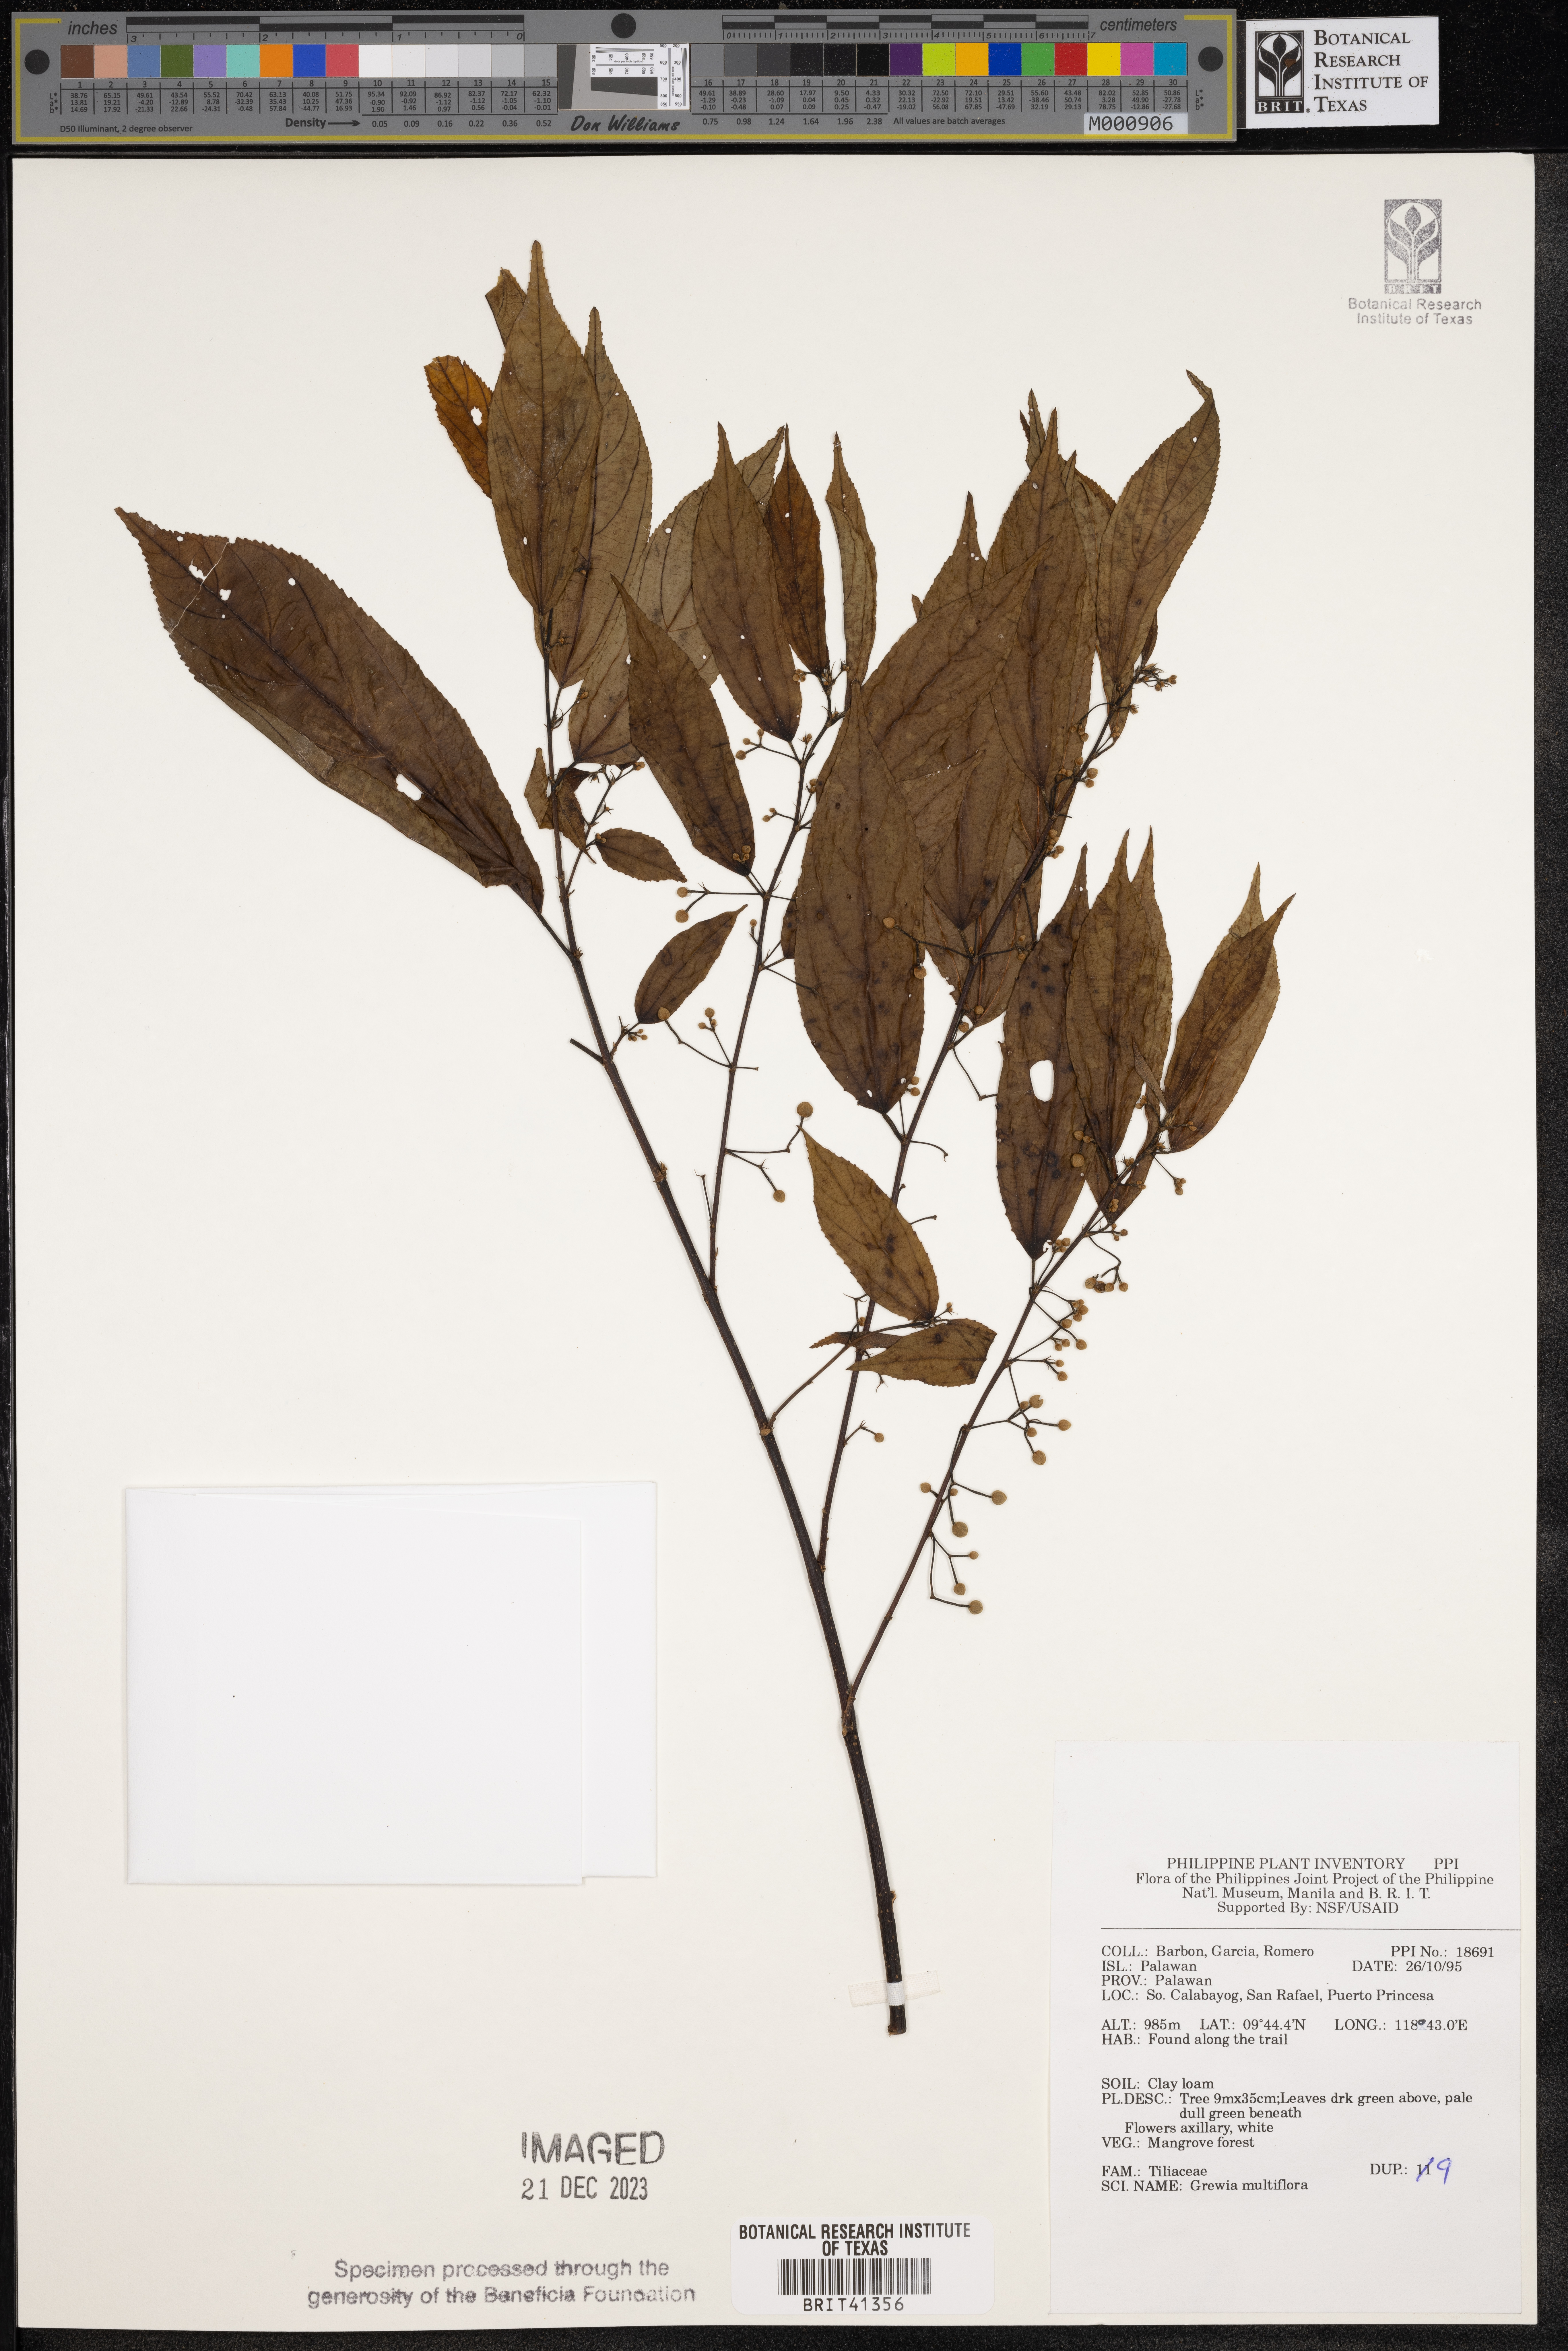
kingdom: Plantae
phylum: Tracheophyta
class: Magnoliopsida
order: Malvales
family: Malvaceae
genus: Grewia
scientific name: Grewia multiflora
